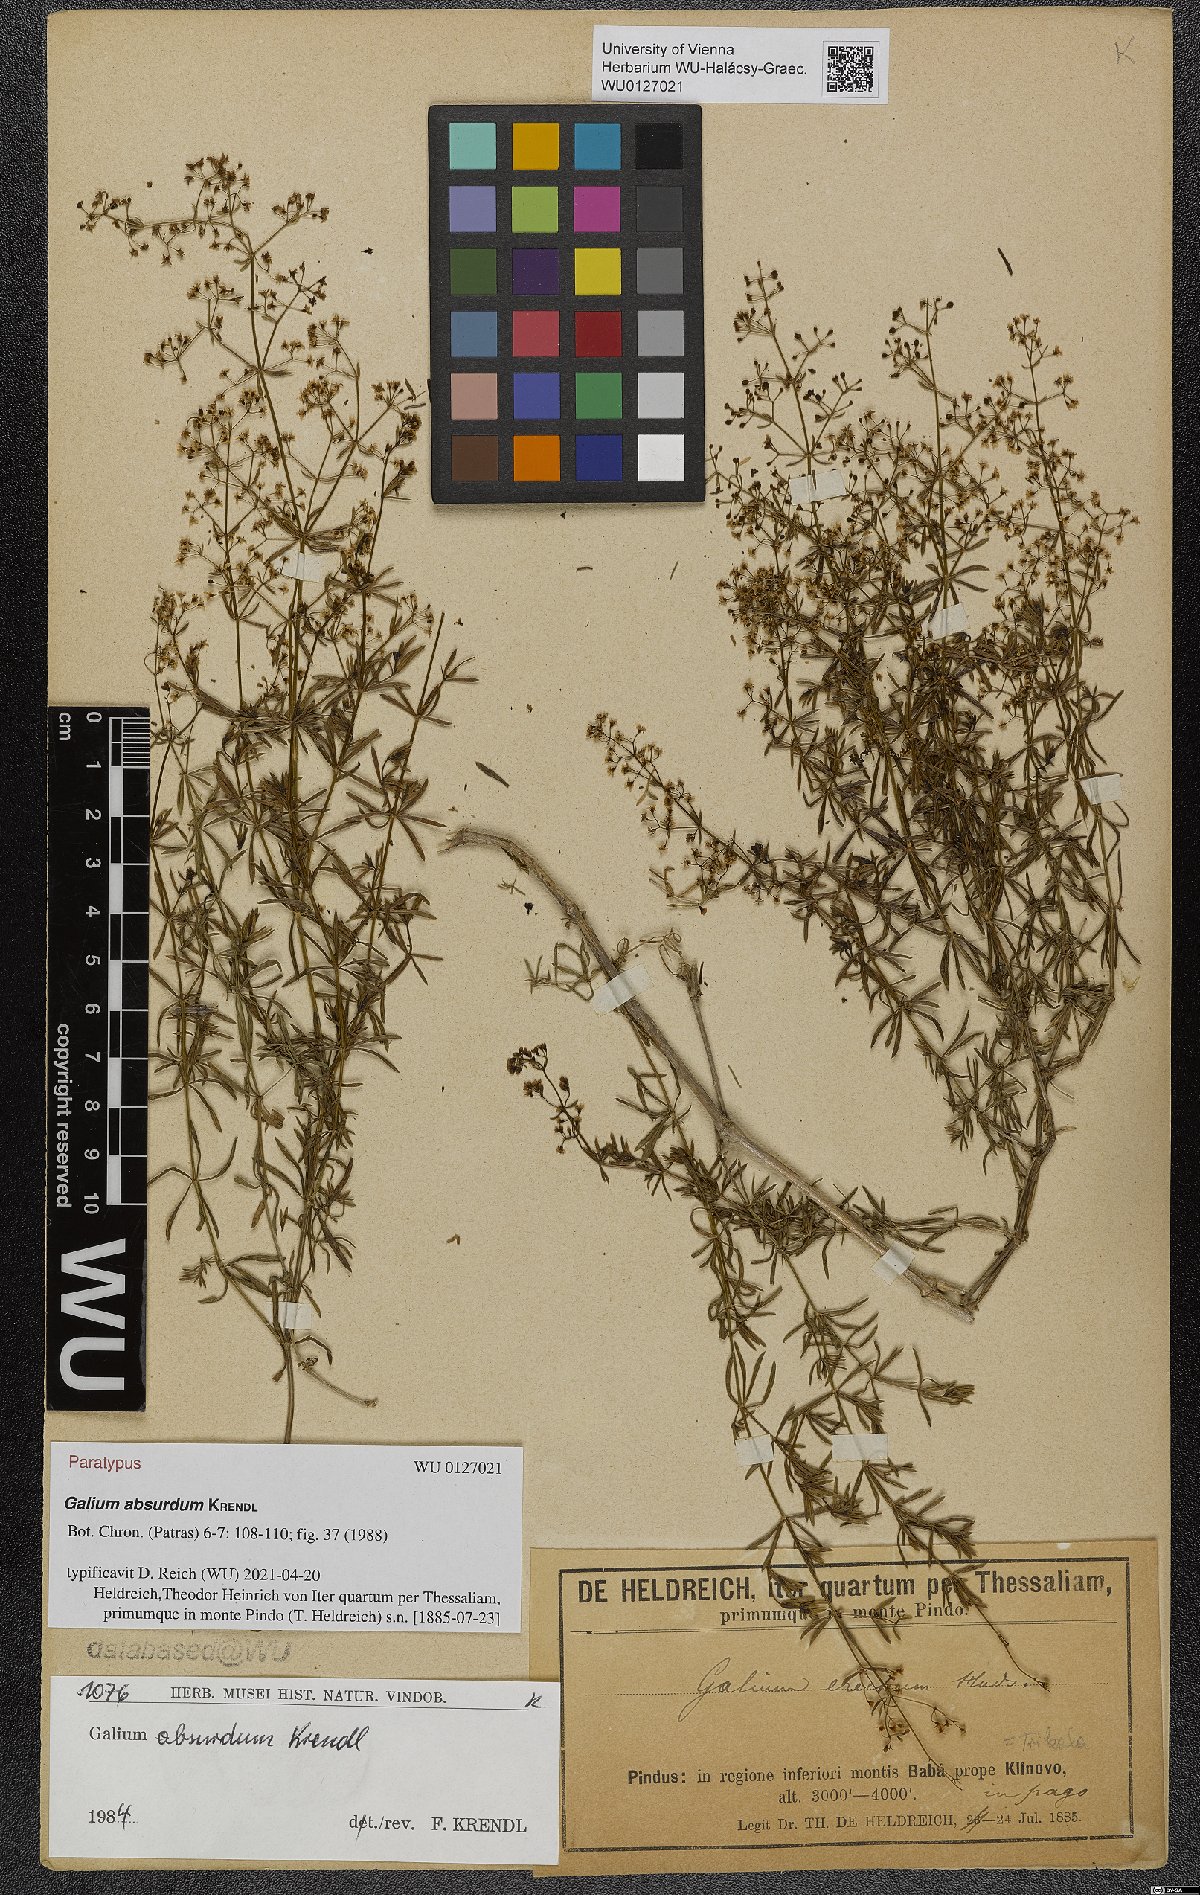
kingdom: Plantae
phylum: Tracheophyta
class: Magnoliopsida
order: Gentianales
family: Rubiaceae
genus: Galium
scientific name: Galium absurdum
